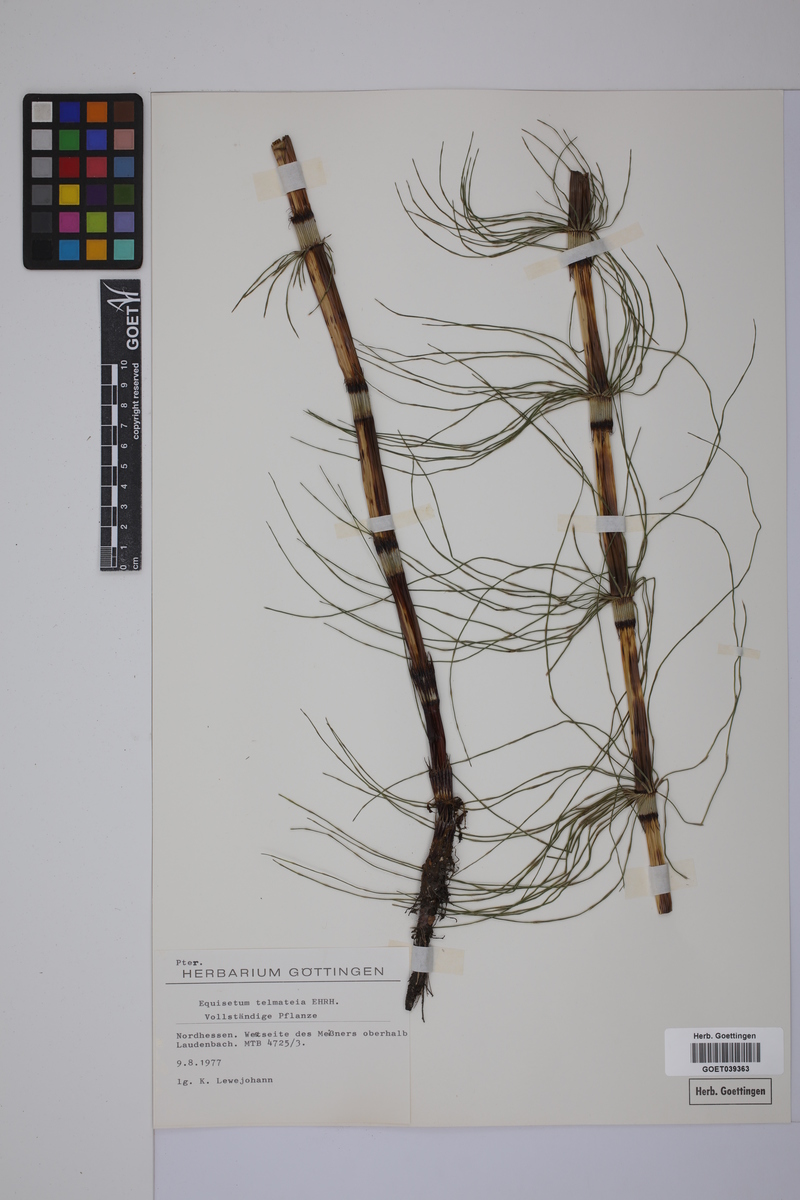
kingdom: Plantae
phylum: Tracheophyta
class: Polypodiopsida
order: Equisetales
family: Equisetaceae
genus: Equisetum
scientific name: Equisetum telmateia
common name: Great horsetail
